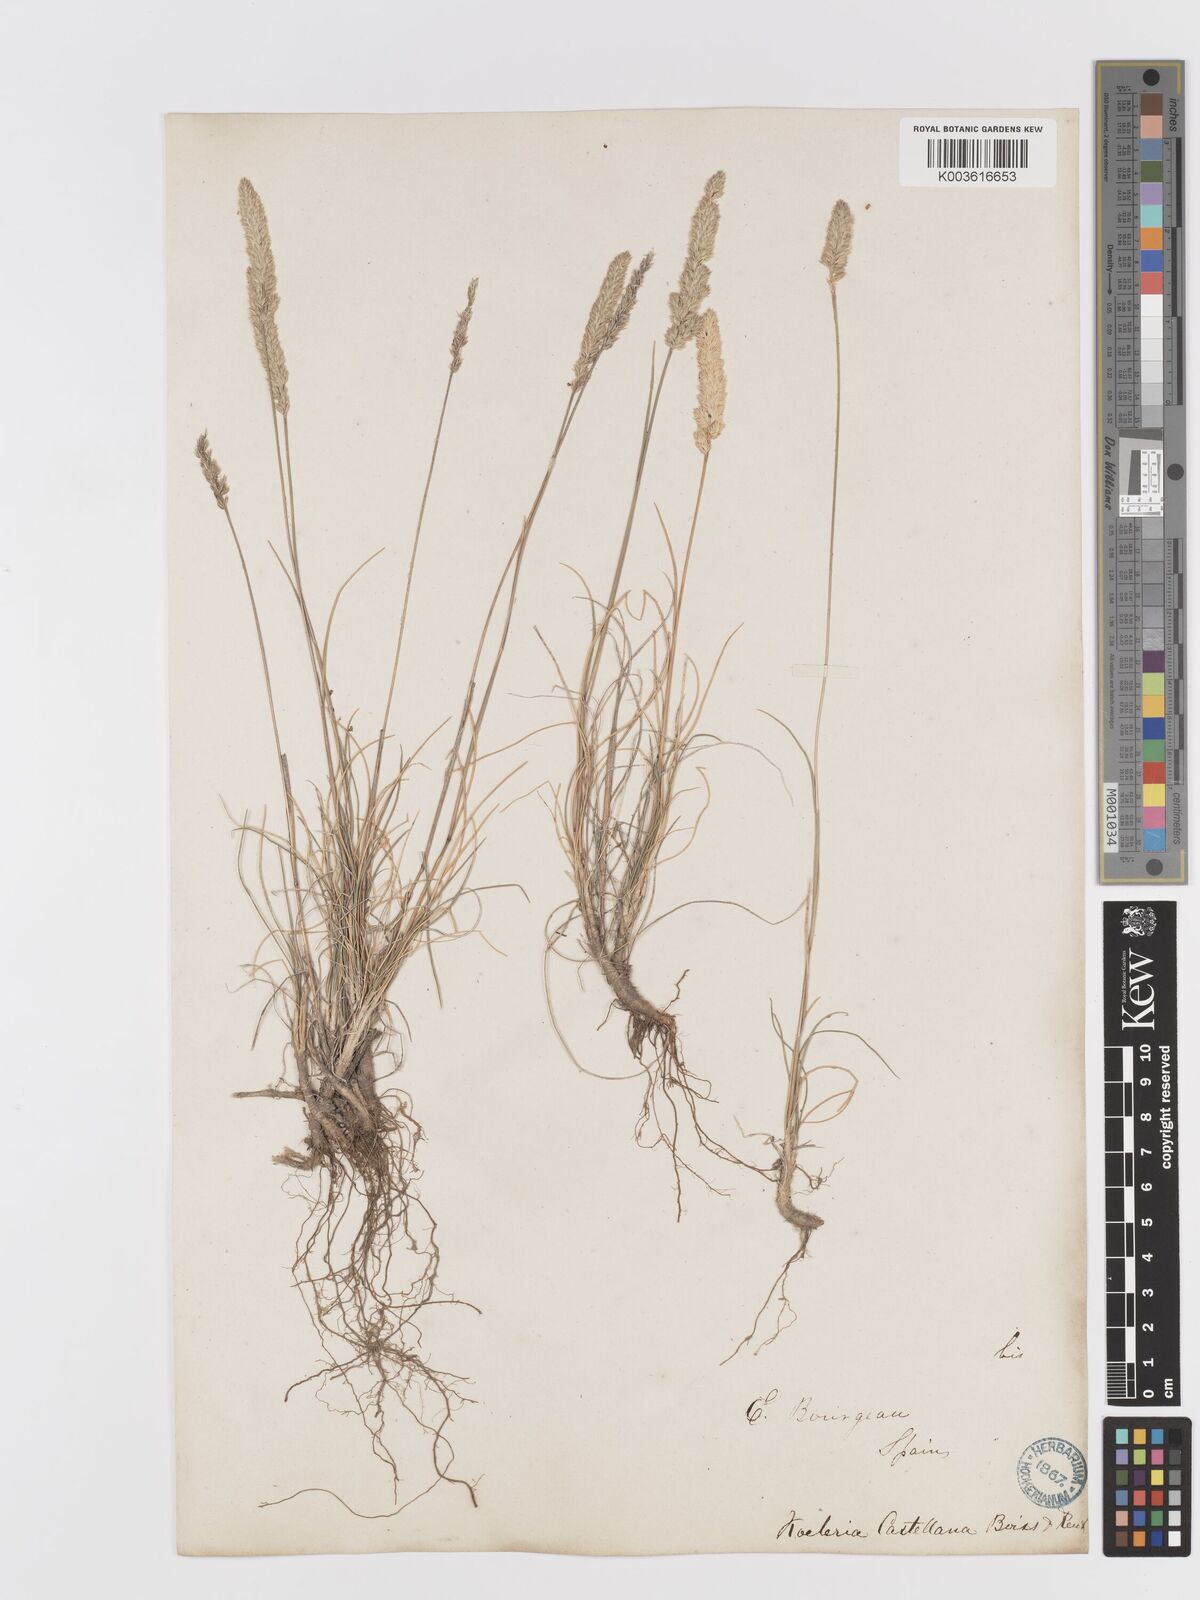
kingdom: Plantae
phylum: Tracheophyta
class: Liliopsida
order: Poales
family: Poaceae
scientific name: Poaceae
